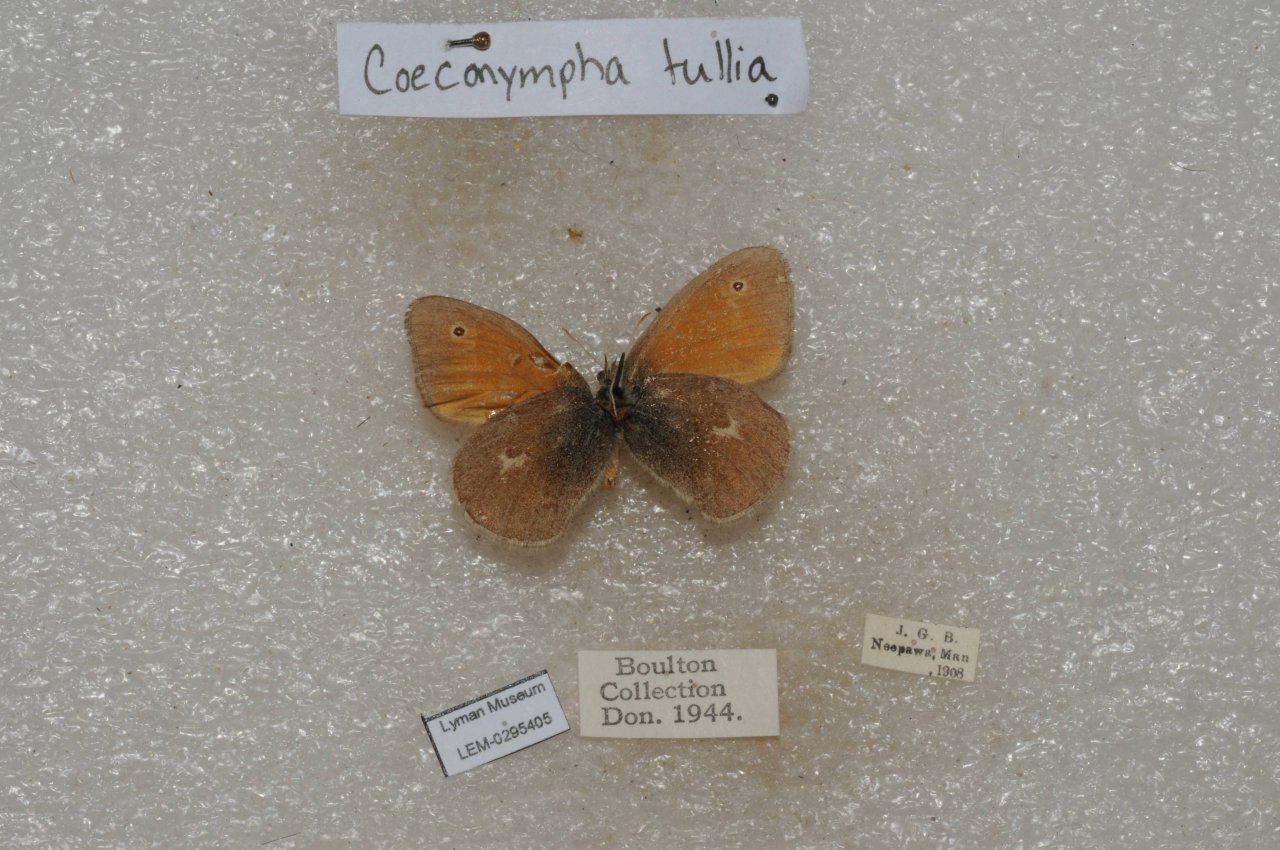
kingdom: Animalia
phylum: Arthropoda
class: Insecta
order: Lepidoptera
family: Nymphalidae
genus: Coenonympha
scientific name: Coenonympha tullia
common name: Large Heath
